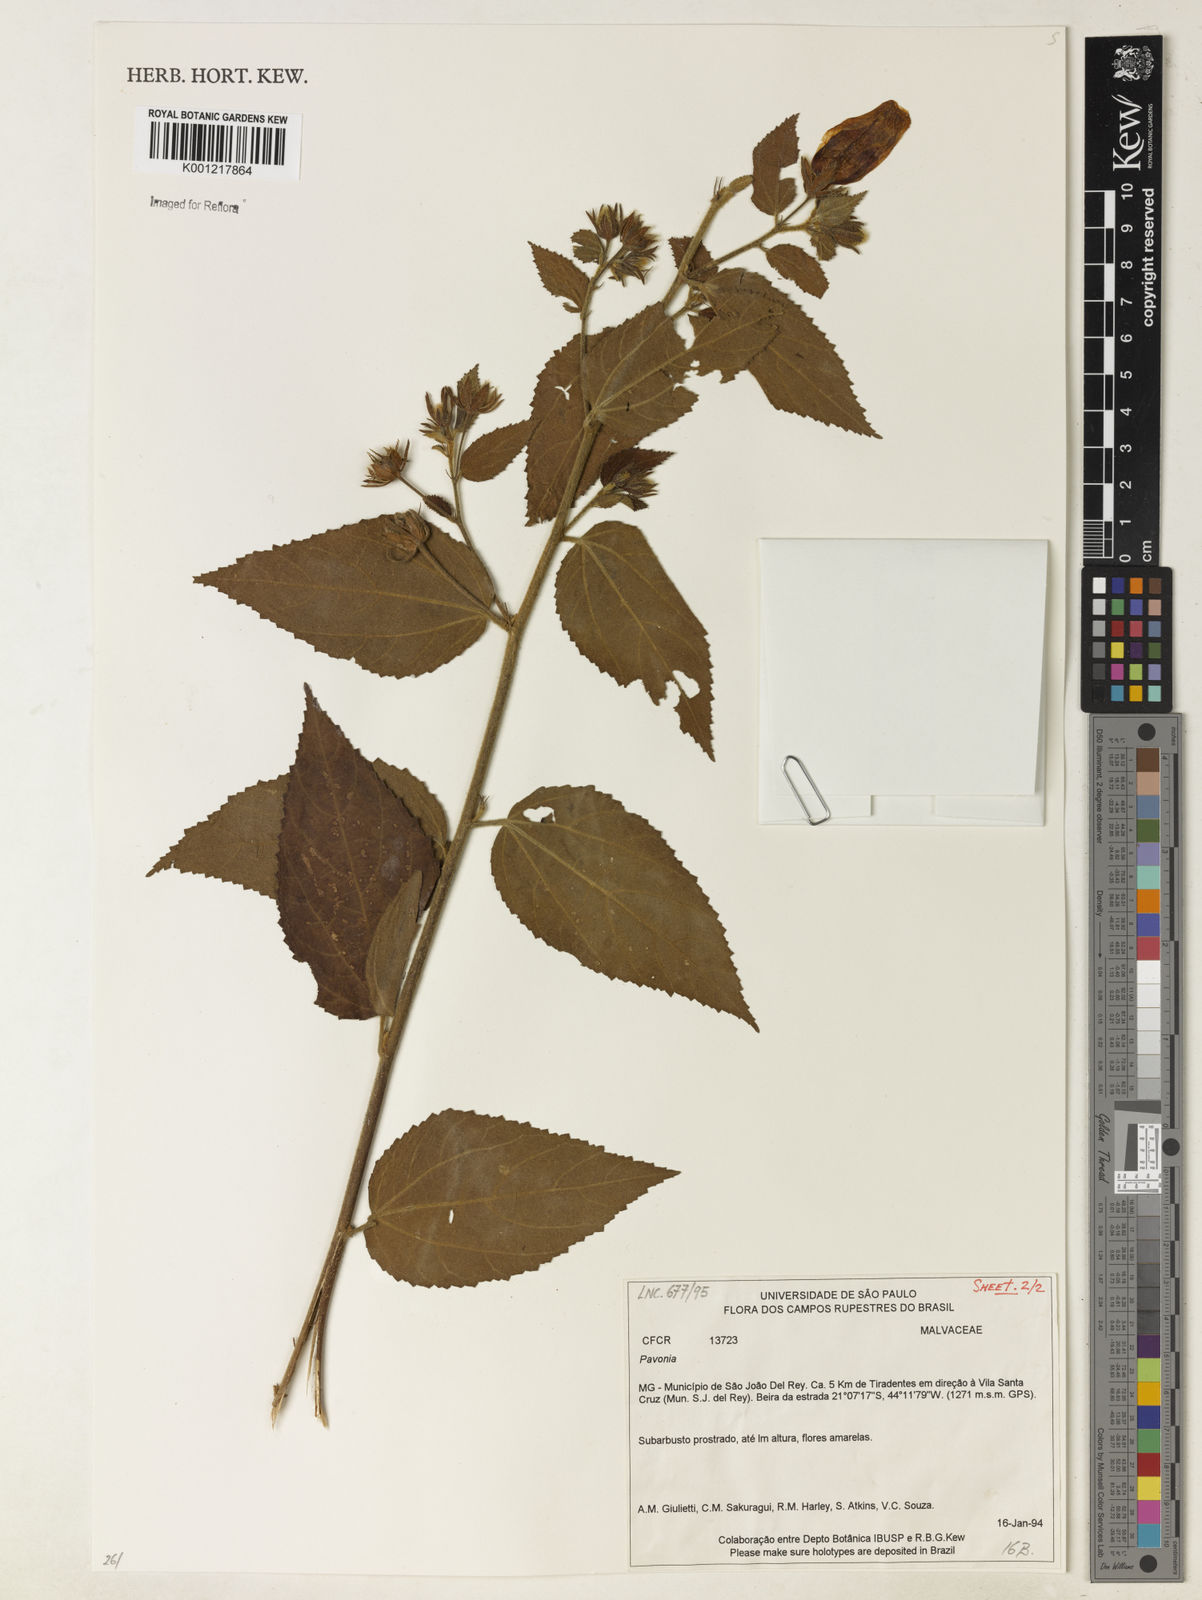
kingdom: Plantae
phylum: Tracheophyta
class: Magnoliopsida
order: Malvales
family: Malvaceae
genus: Pavonia
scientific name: Pavonia
